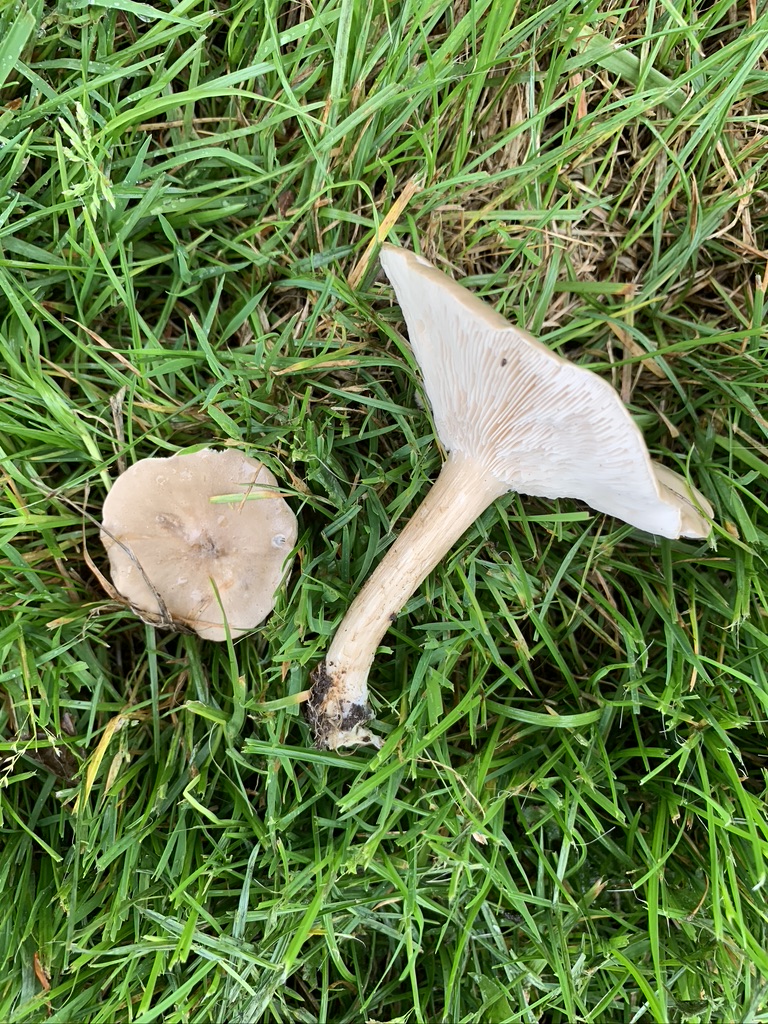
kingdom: Fungi
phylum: Basidiomycota
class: Agaricomycetes
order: Agaricales
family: Tricholomataceae
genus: Melanoleuca
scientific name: Melanoleuca grammopodia
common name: stribestokket munkehat
